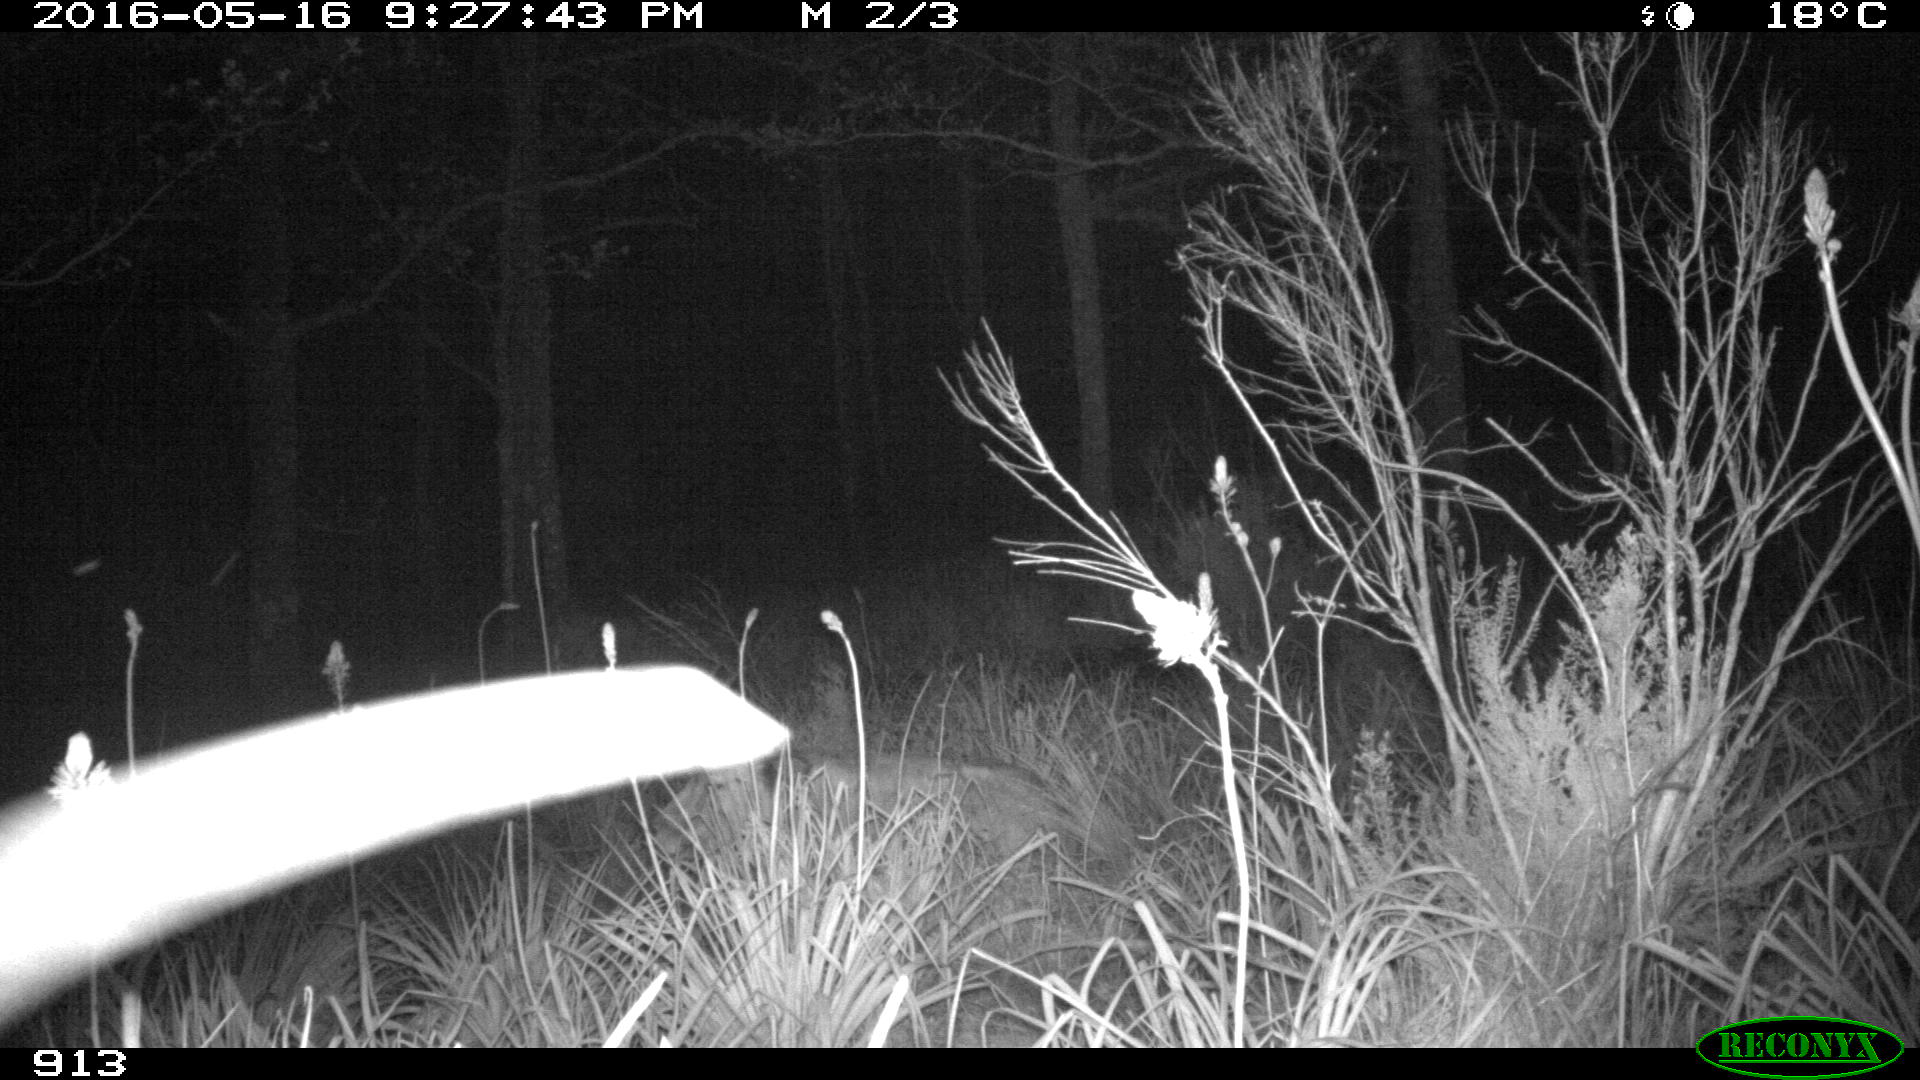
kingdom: Animalia
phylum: Chordata
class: Mammalia
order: Artiodactyla
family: Bovidae
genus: Bos
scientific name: Bos taurus
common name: Domesticated cattle
